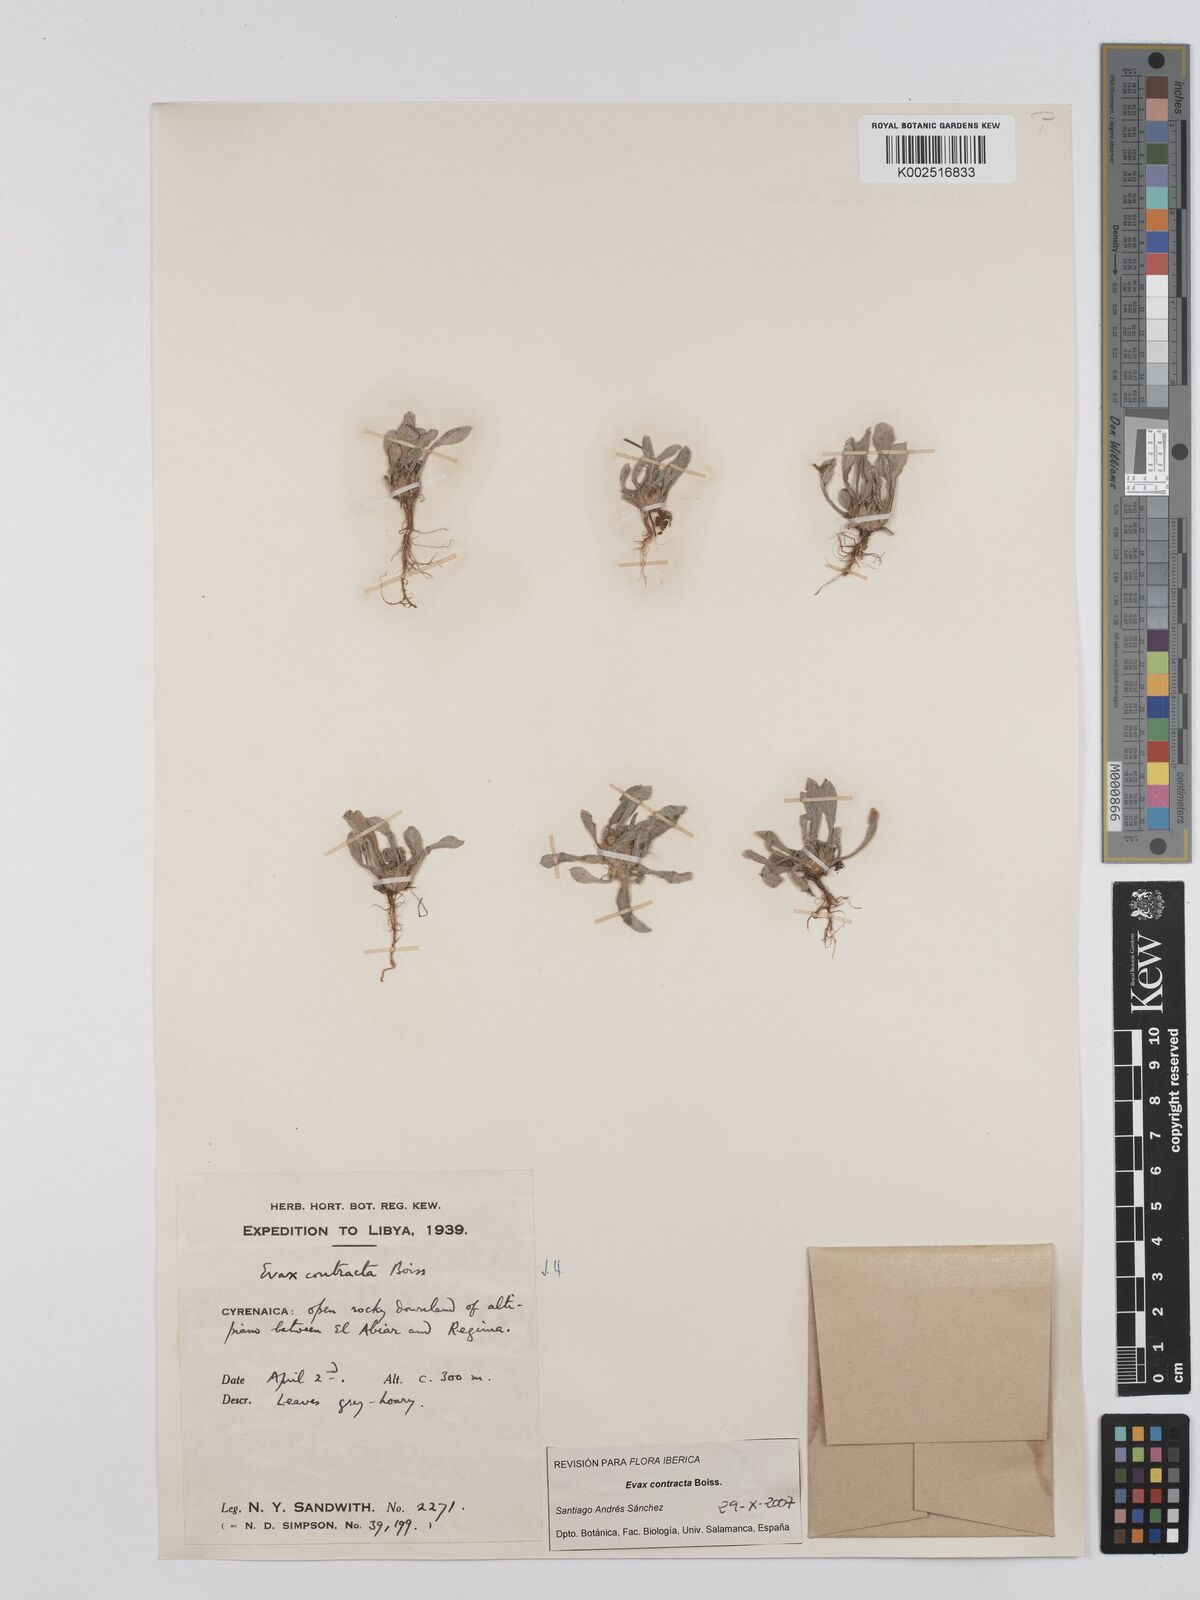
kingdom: Plantae
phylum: Tracheophyta
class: Magnoliopsida
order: Asterales
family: Asteraceae
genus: Filago
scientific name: Filago contracta
